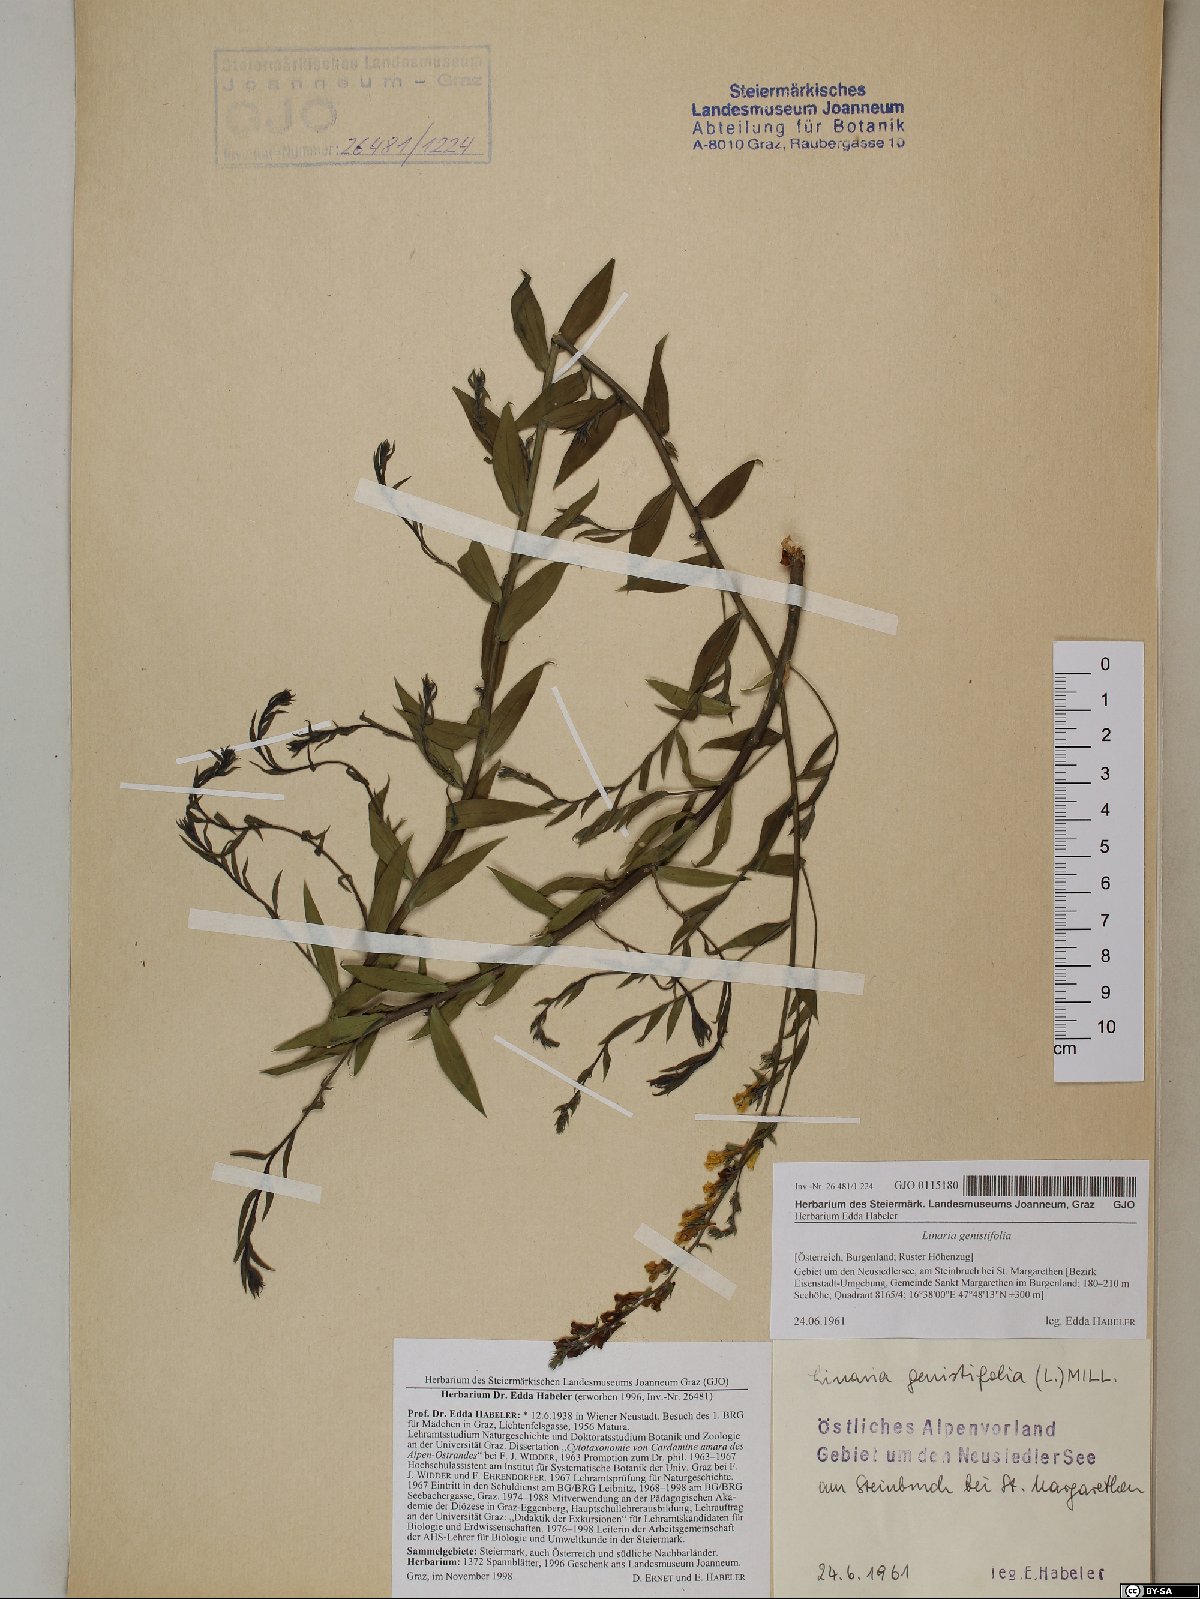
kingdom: Plantae
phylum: Tracheophyta
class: Magnoliopsida
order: Lamiales
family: Plantaginaceae
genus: Linaria
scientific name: Linaria genistifolia
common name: Broomleaf toadflax
